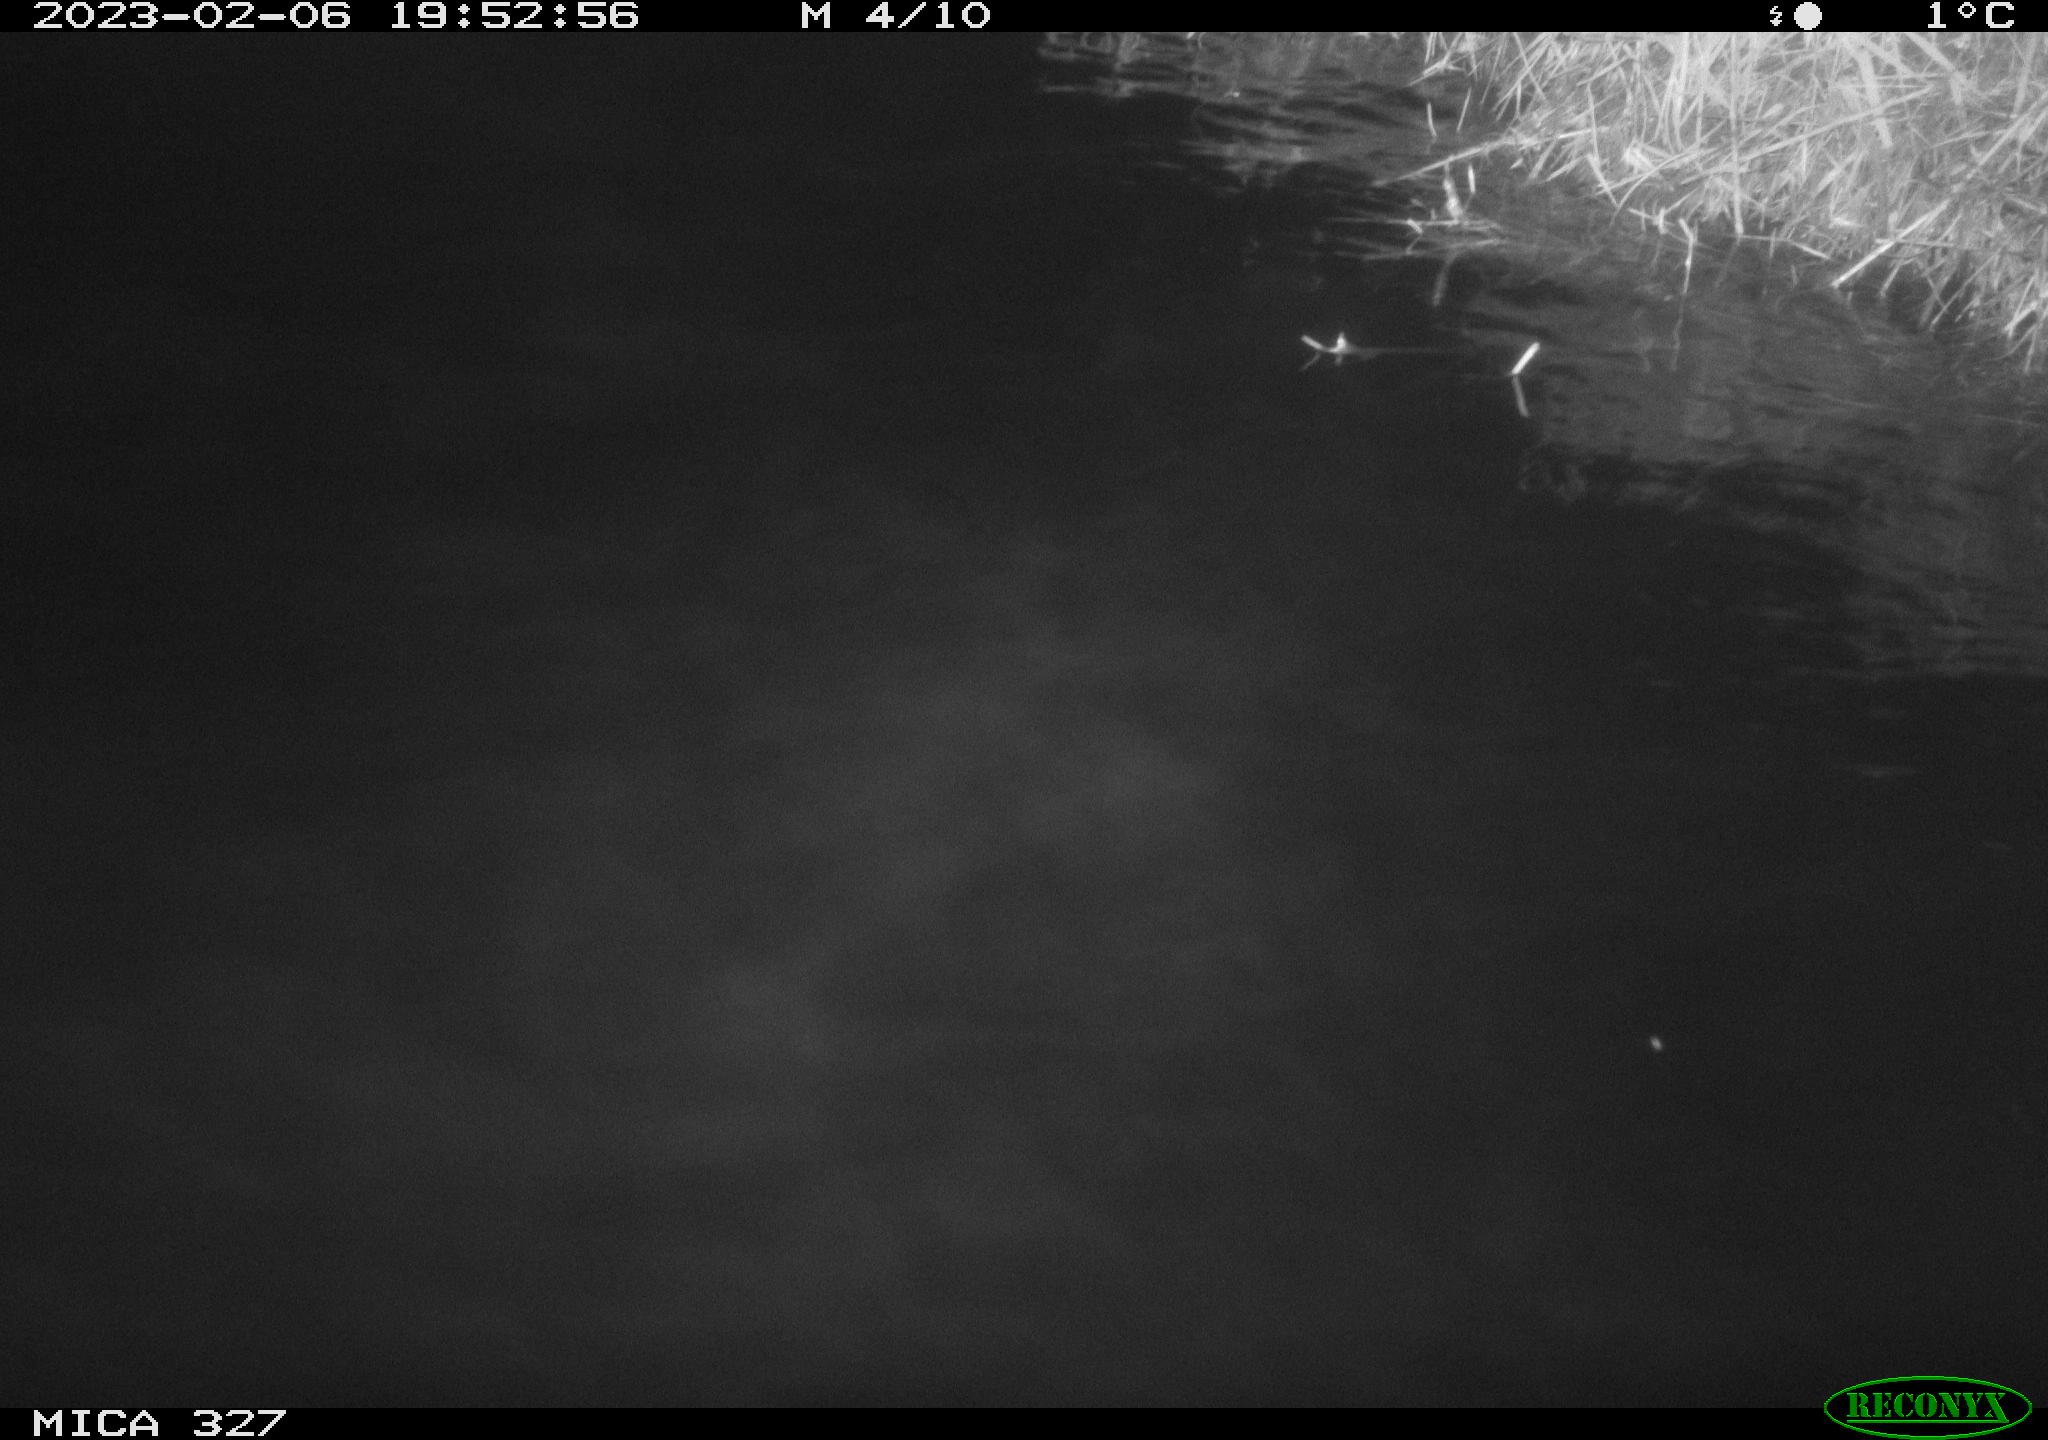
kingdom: Animalia
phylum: Chordata
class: Mammalia
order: Rodentia
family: Cricetidae
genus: Ondatra
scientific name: Ondatra zibethicus
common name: Muskrat
